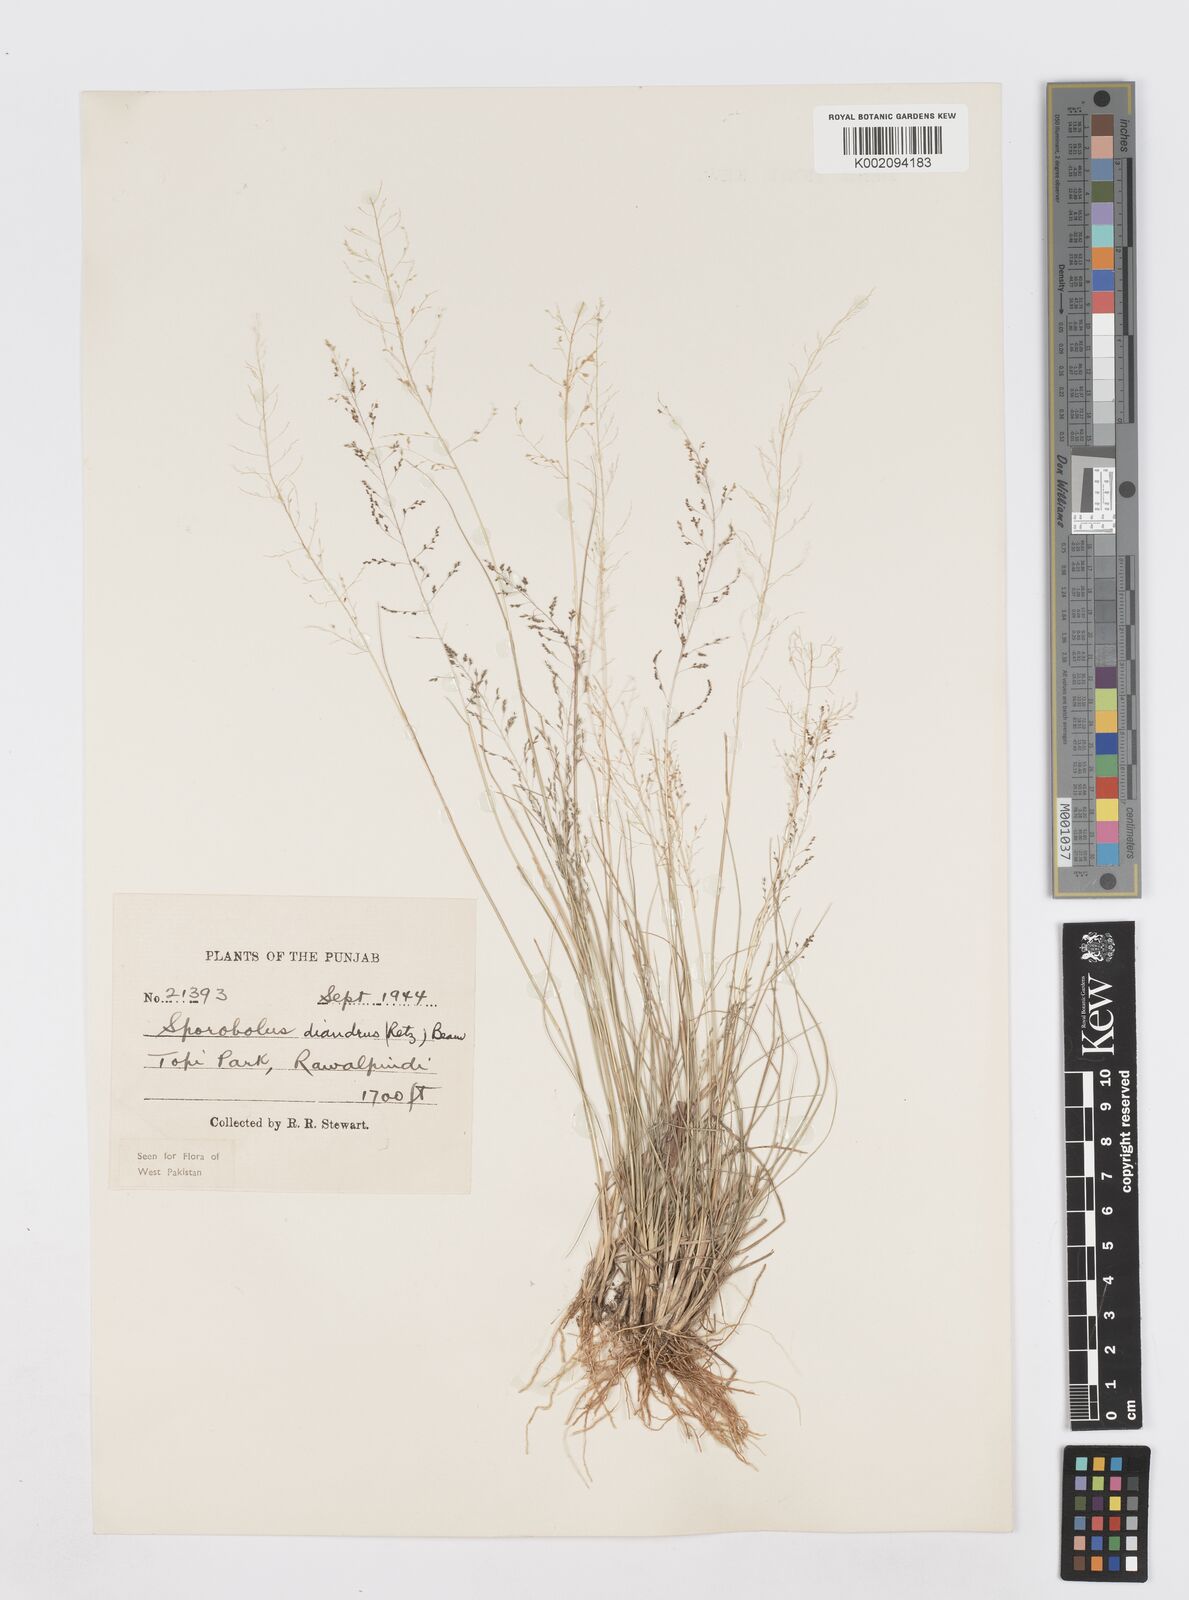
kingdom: Plantae
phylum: Tracheophyta
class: Liliopsida
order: Poales
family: Poaceae
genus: Sporobolus
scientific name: Sporobolus diandrus
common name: Tussock dropseed
